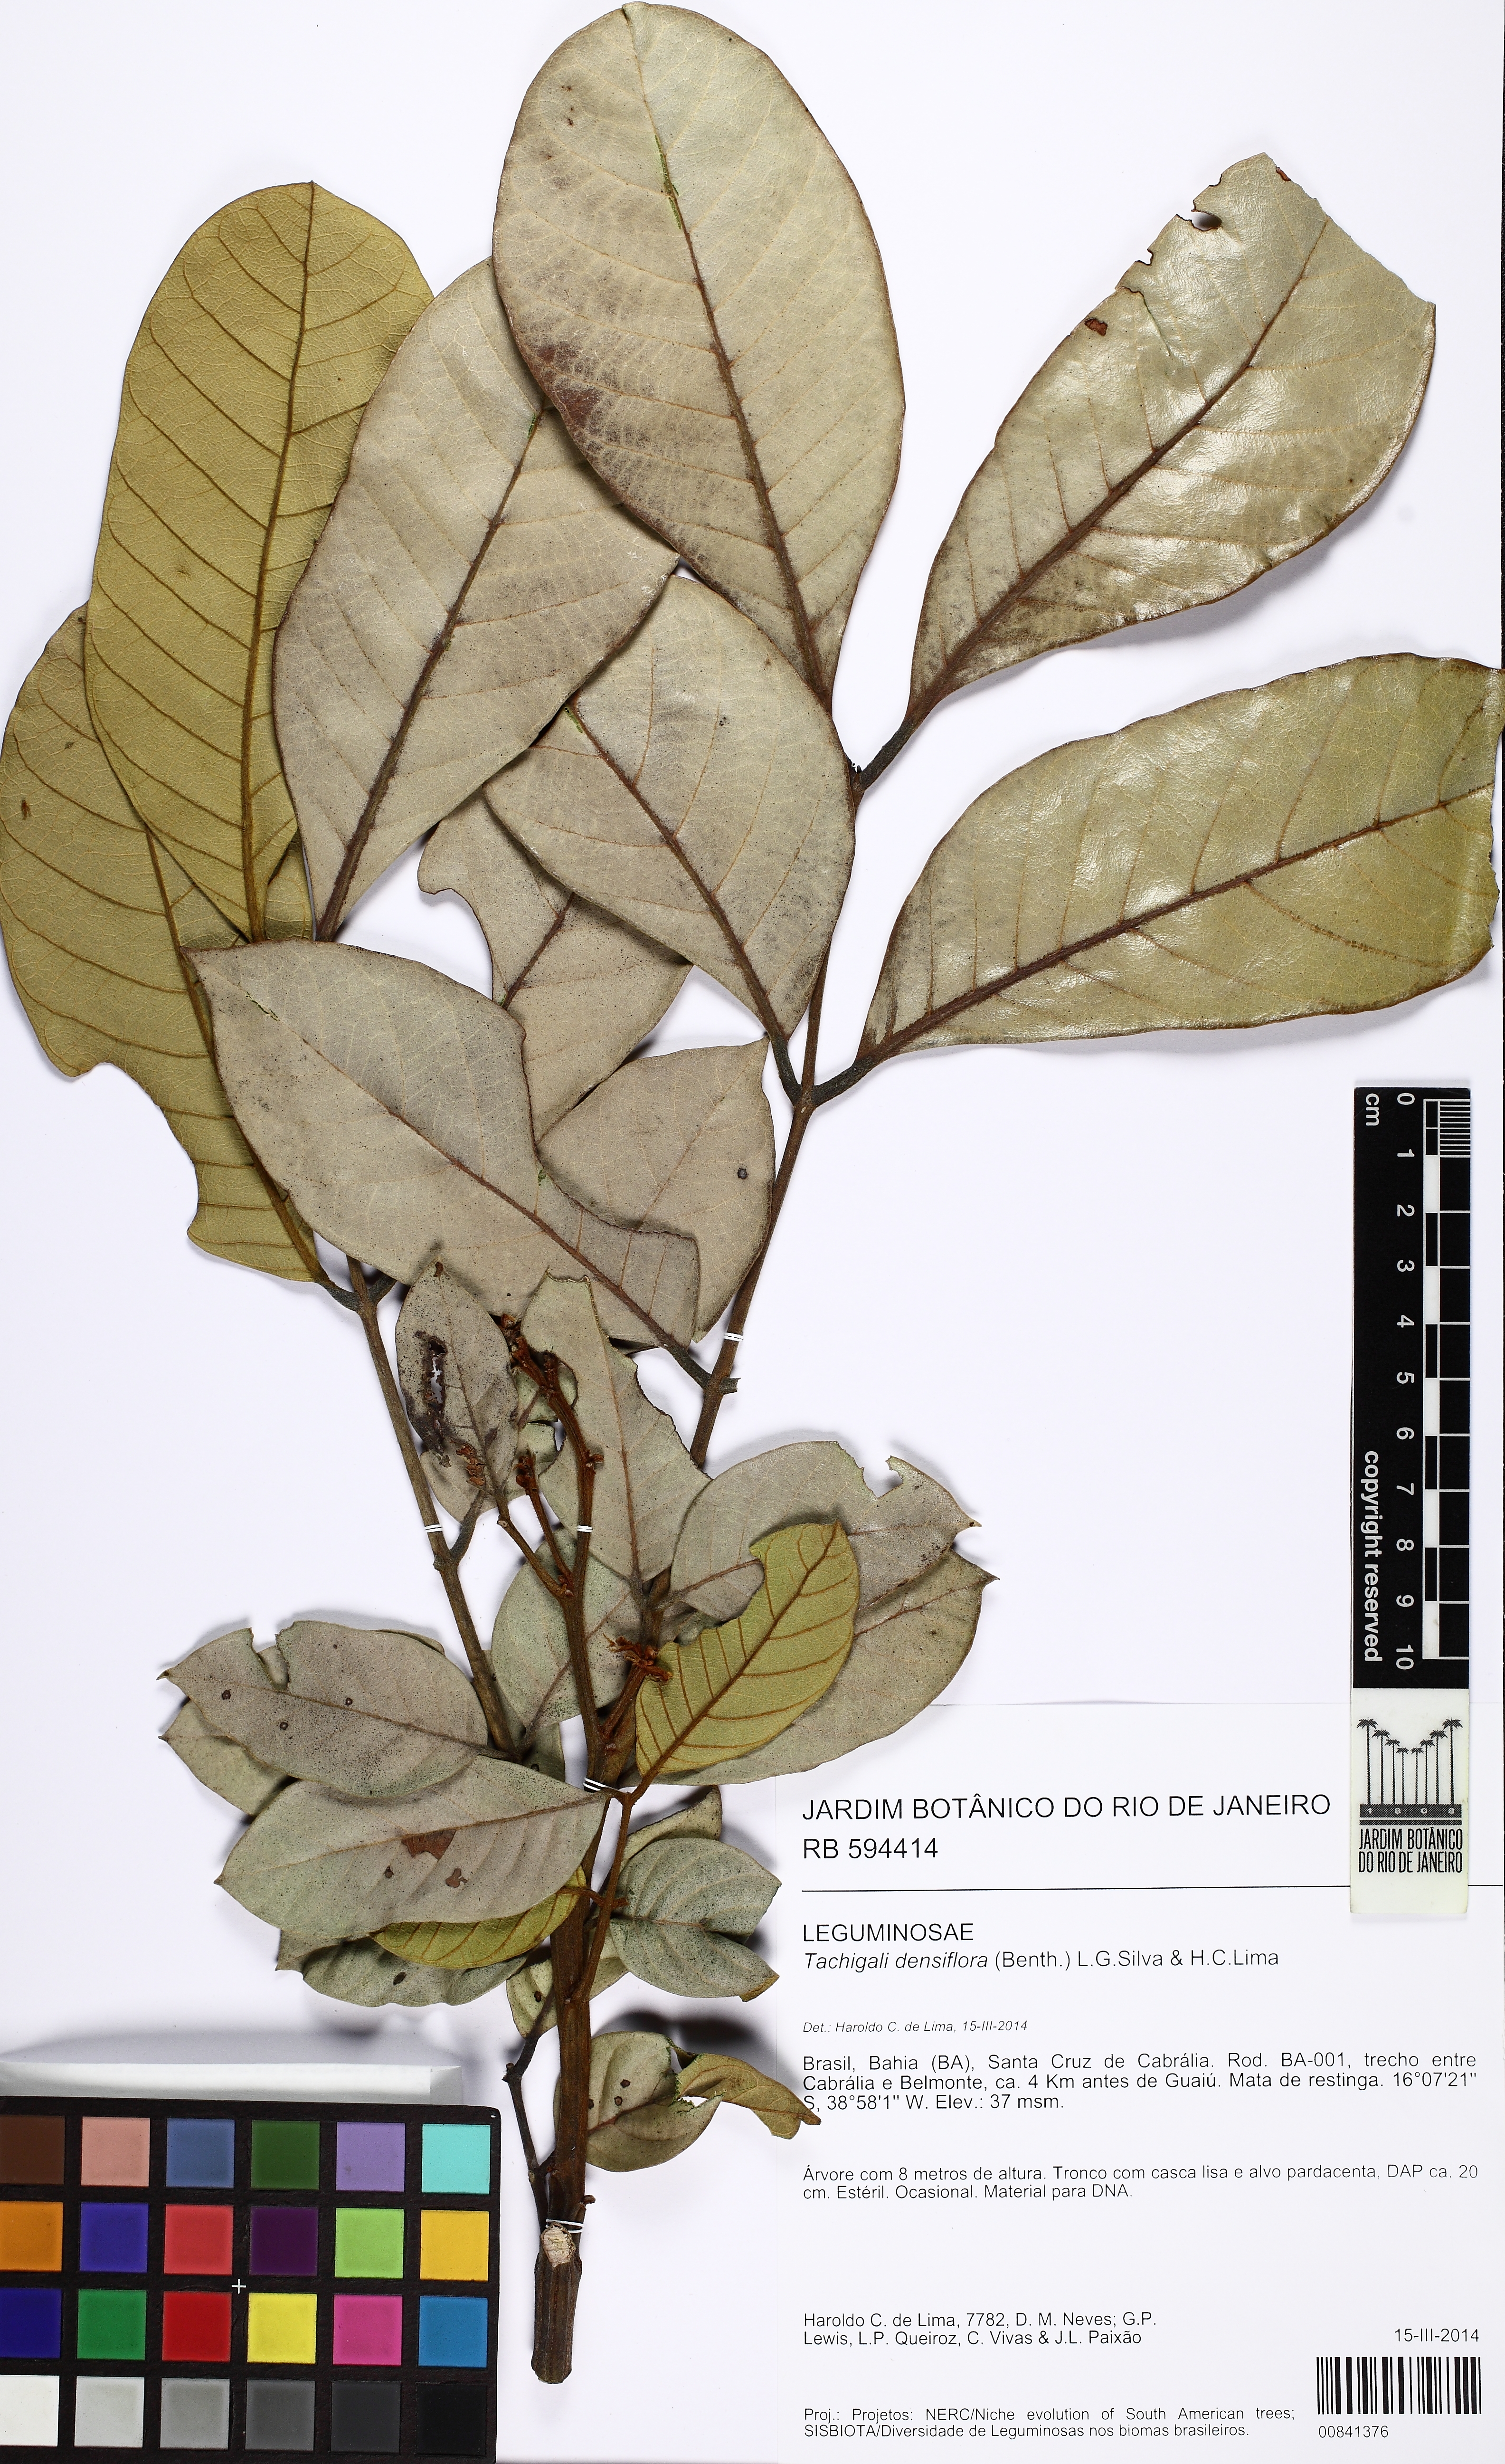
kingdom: Plantae
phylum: Tracheophyta
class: Magnoliopsida
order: Fabales
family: Fabaceae
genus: Tachigali
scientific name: Tachigali densiflora
